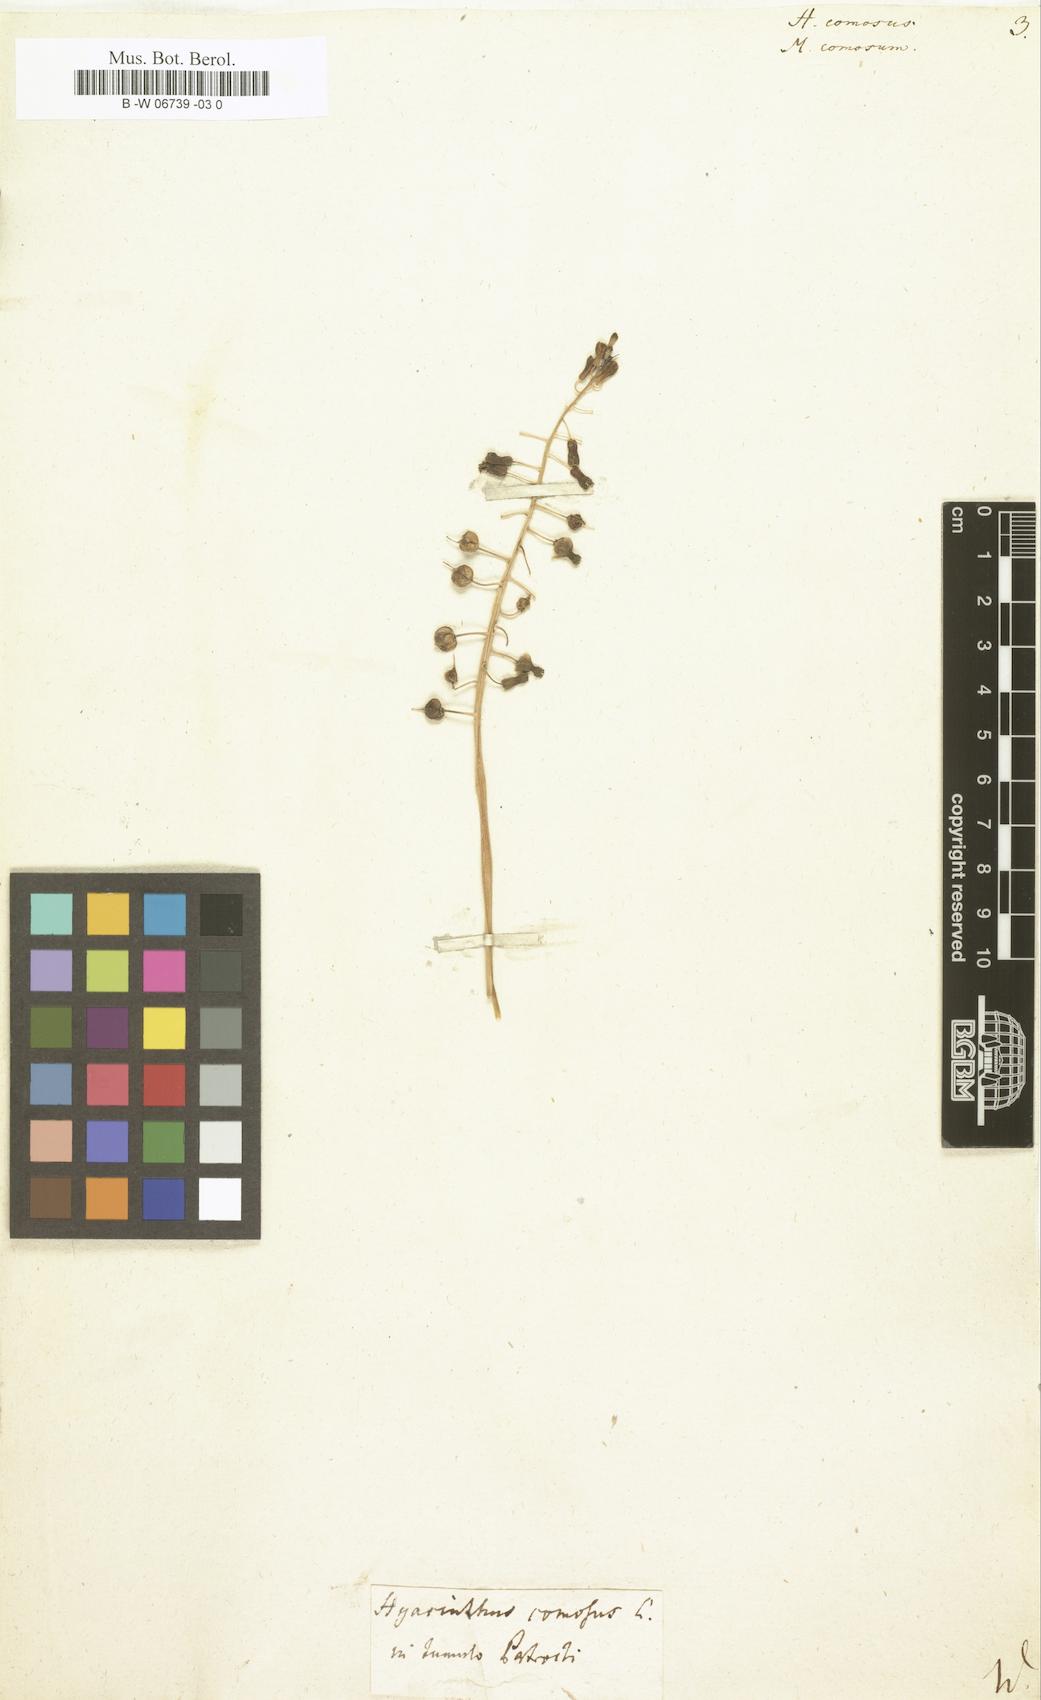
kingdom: Plantae
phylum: Tracheophyta
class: Liliopsida
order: Asparagales
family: Asparagaceae
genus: Muscari
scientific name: Muscari comosum
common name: Tassel hyacinth
